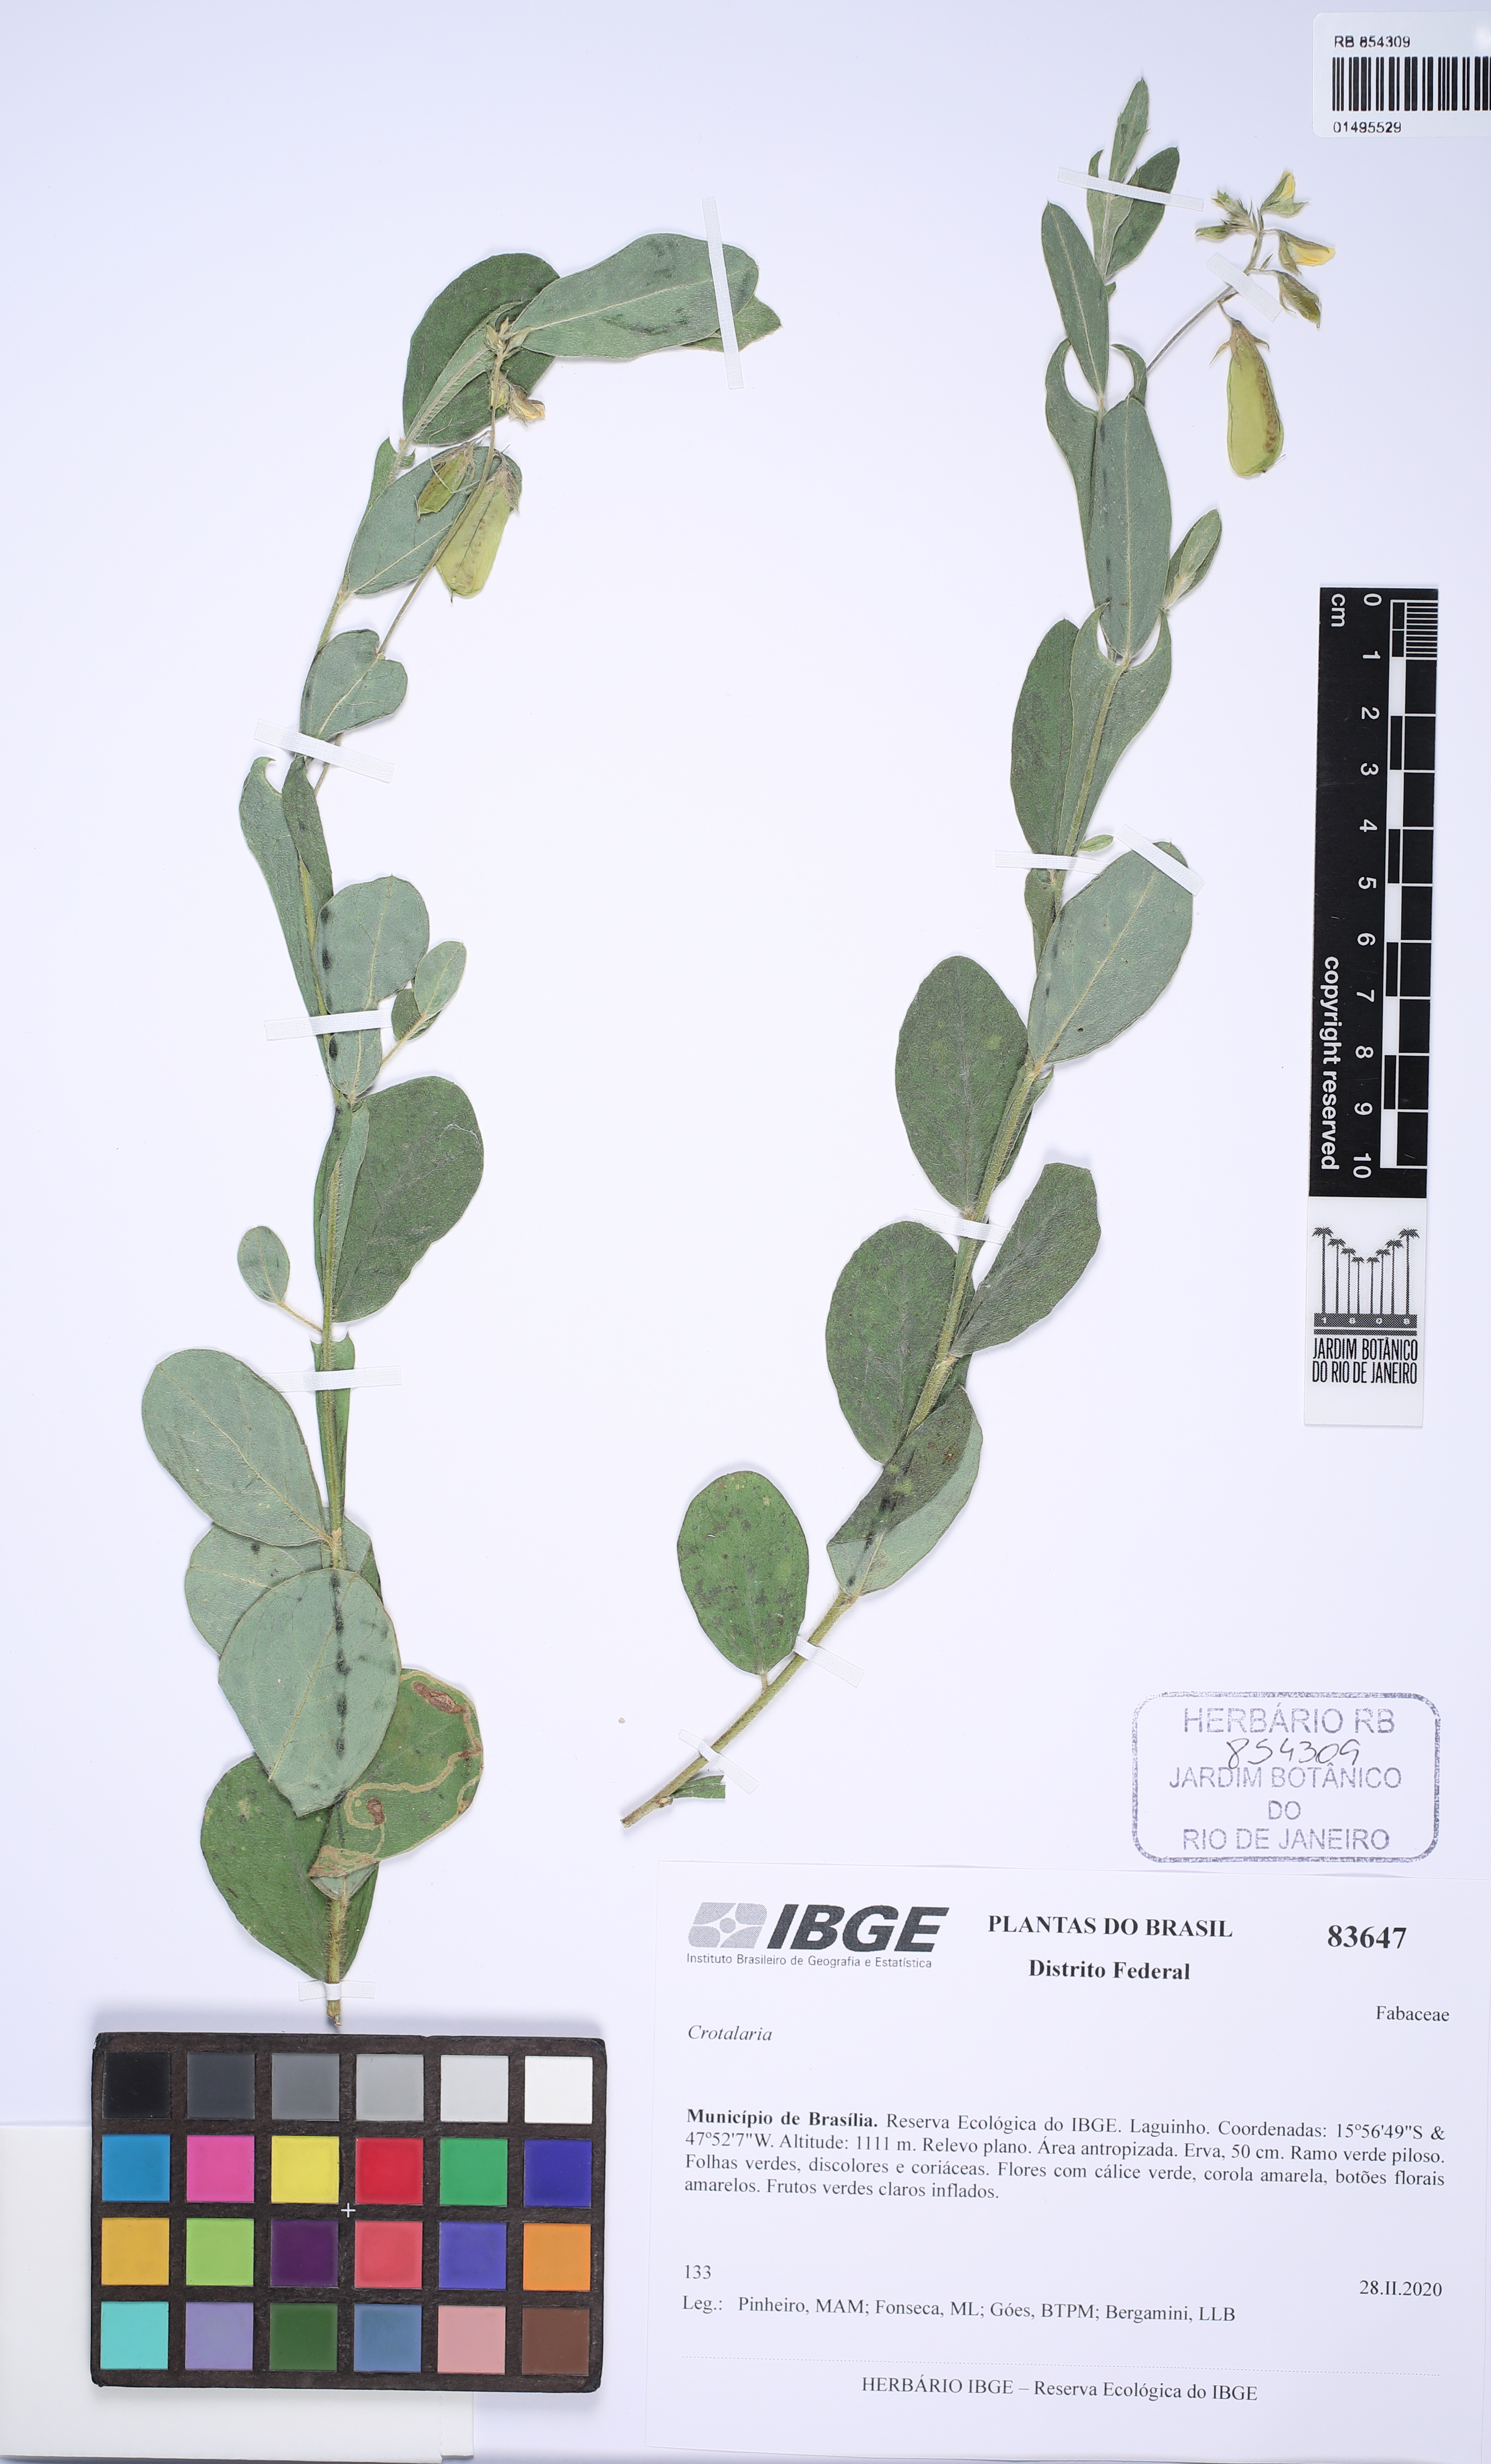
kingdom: Plantae
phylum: Tracheophyta
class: Magnoliopsida
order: Fabales
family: Fabaceae
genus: Crotalaria
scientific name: Crotalaria
